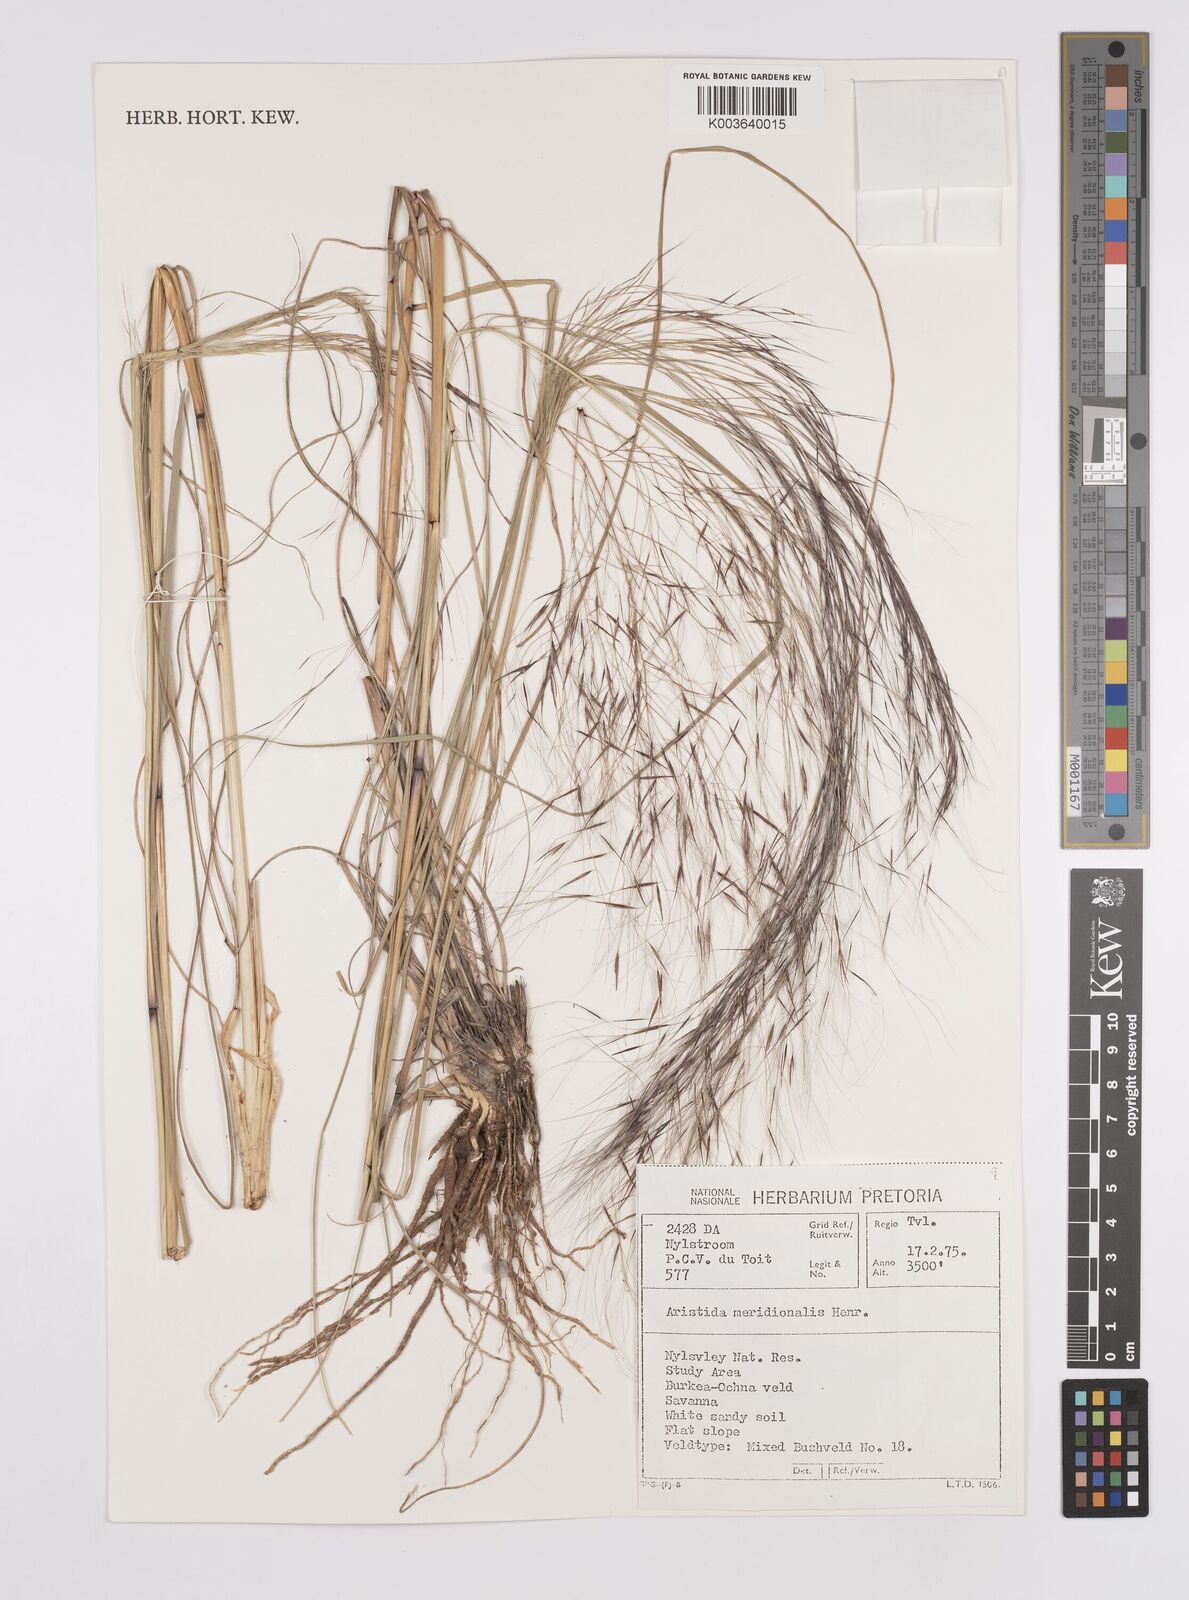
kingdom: Plantae
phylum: Tracheophyta
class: Liliopsida
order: Poales
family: Poaceae
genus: Aristida
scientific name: Aristida meridionalis
